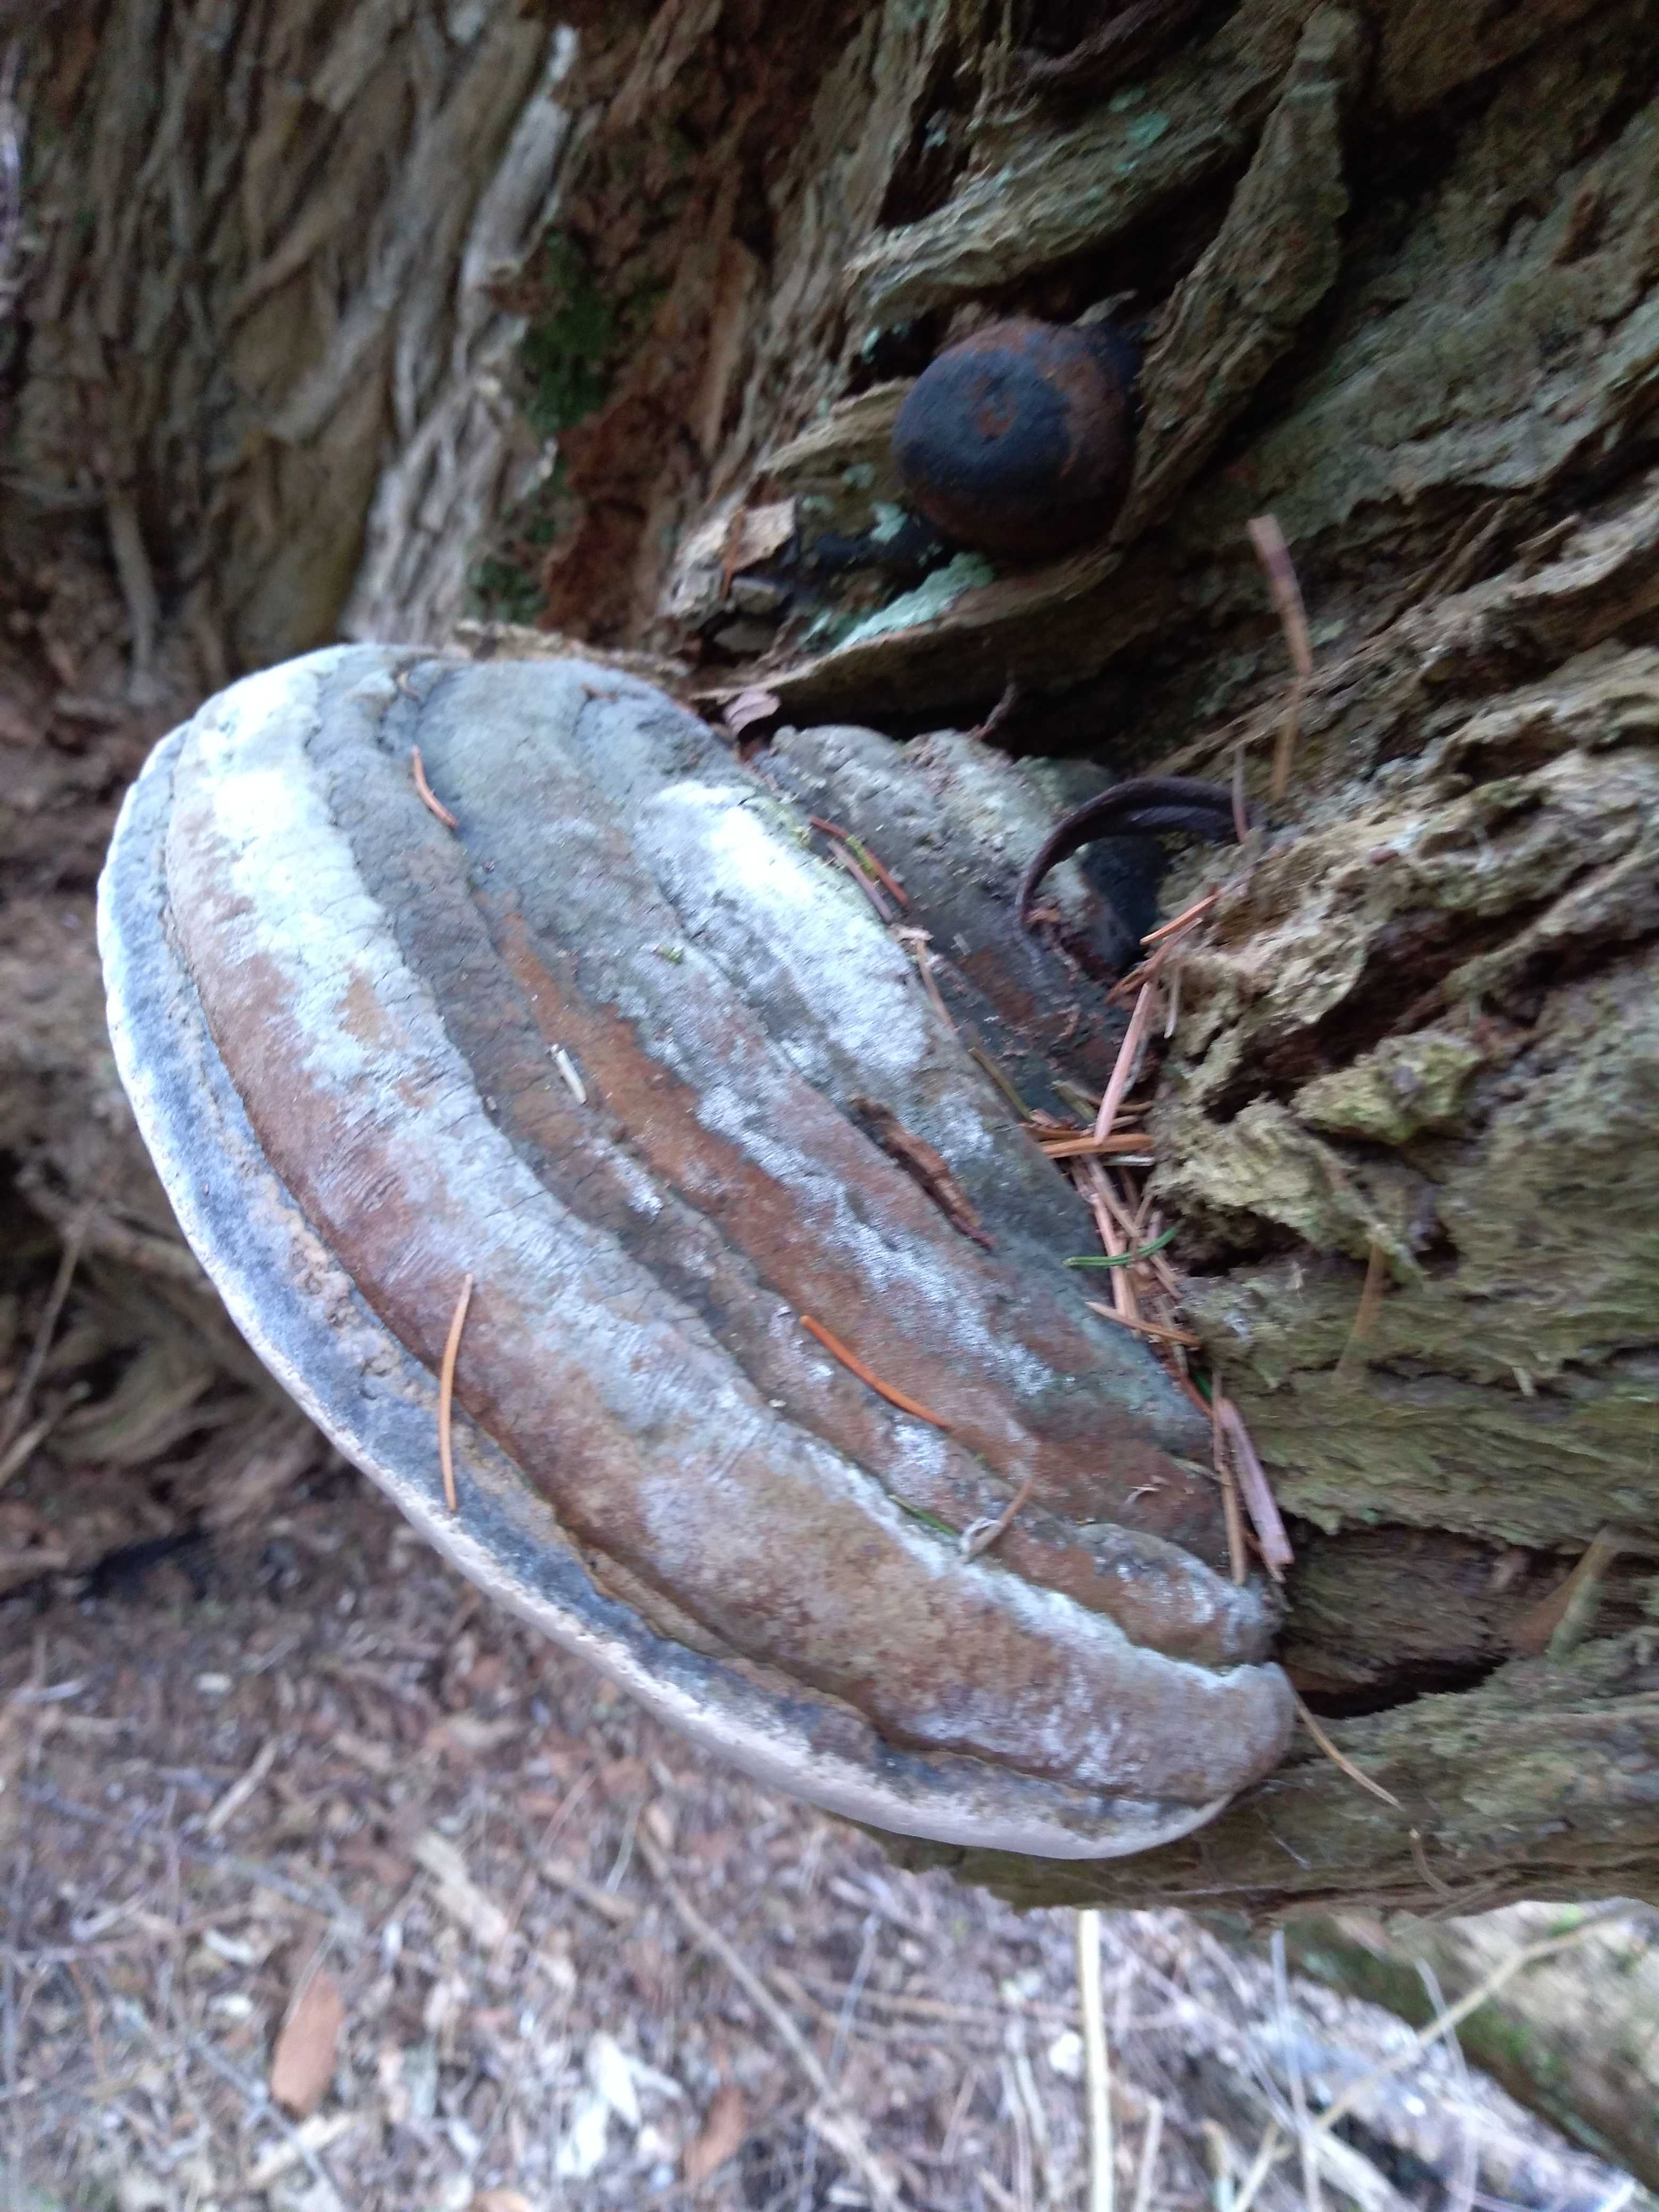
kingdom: Fungi
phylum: Basidiomycota
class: Agaricomycetes
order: Polyporales
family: Polyporaceae
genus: Fomes
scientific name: Fomes fomentarius
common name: tøndersvamp
